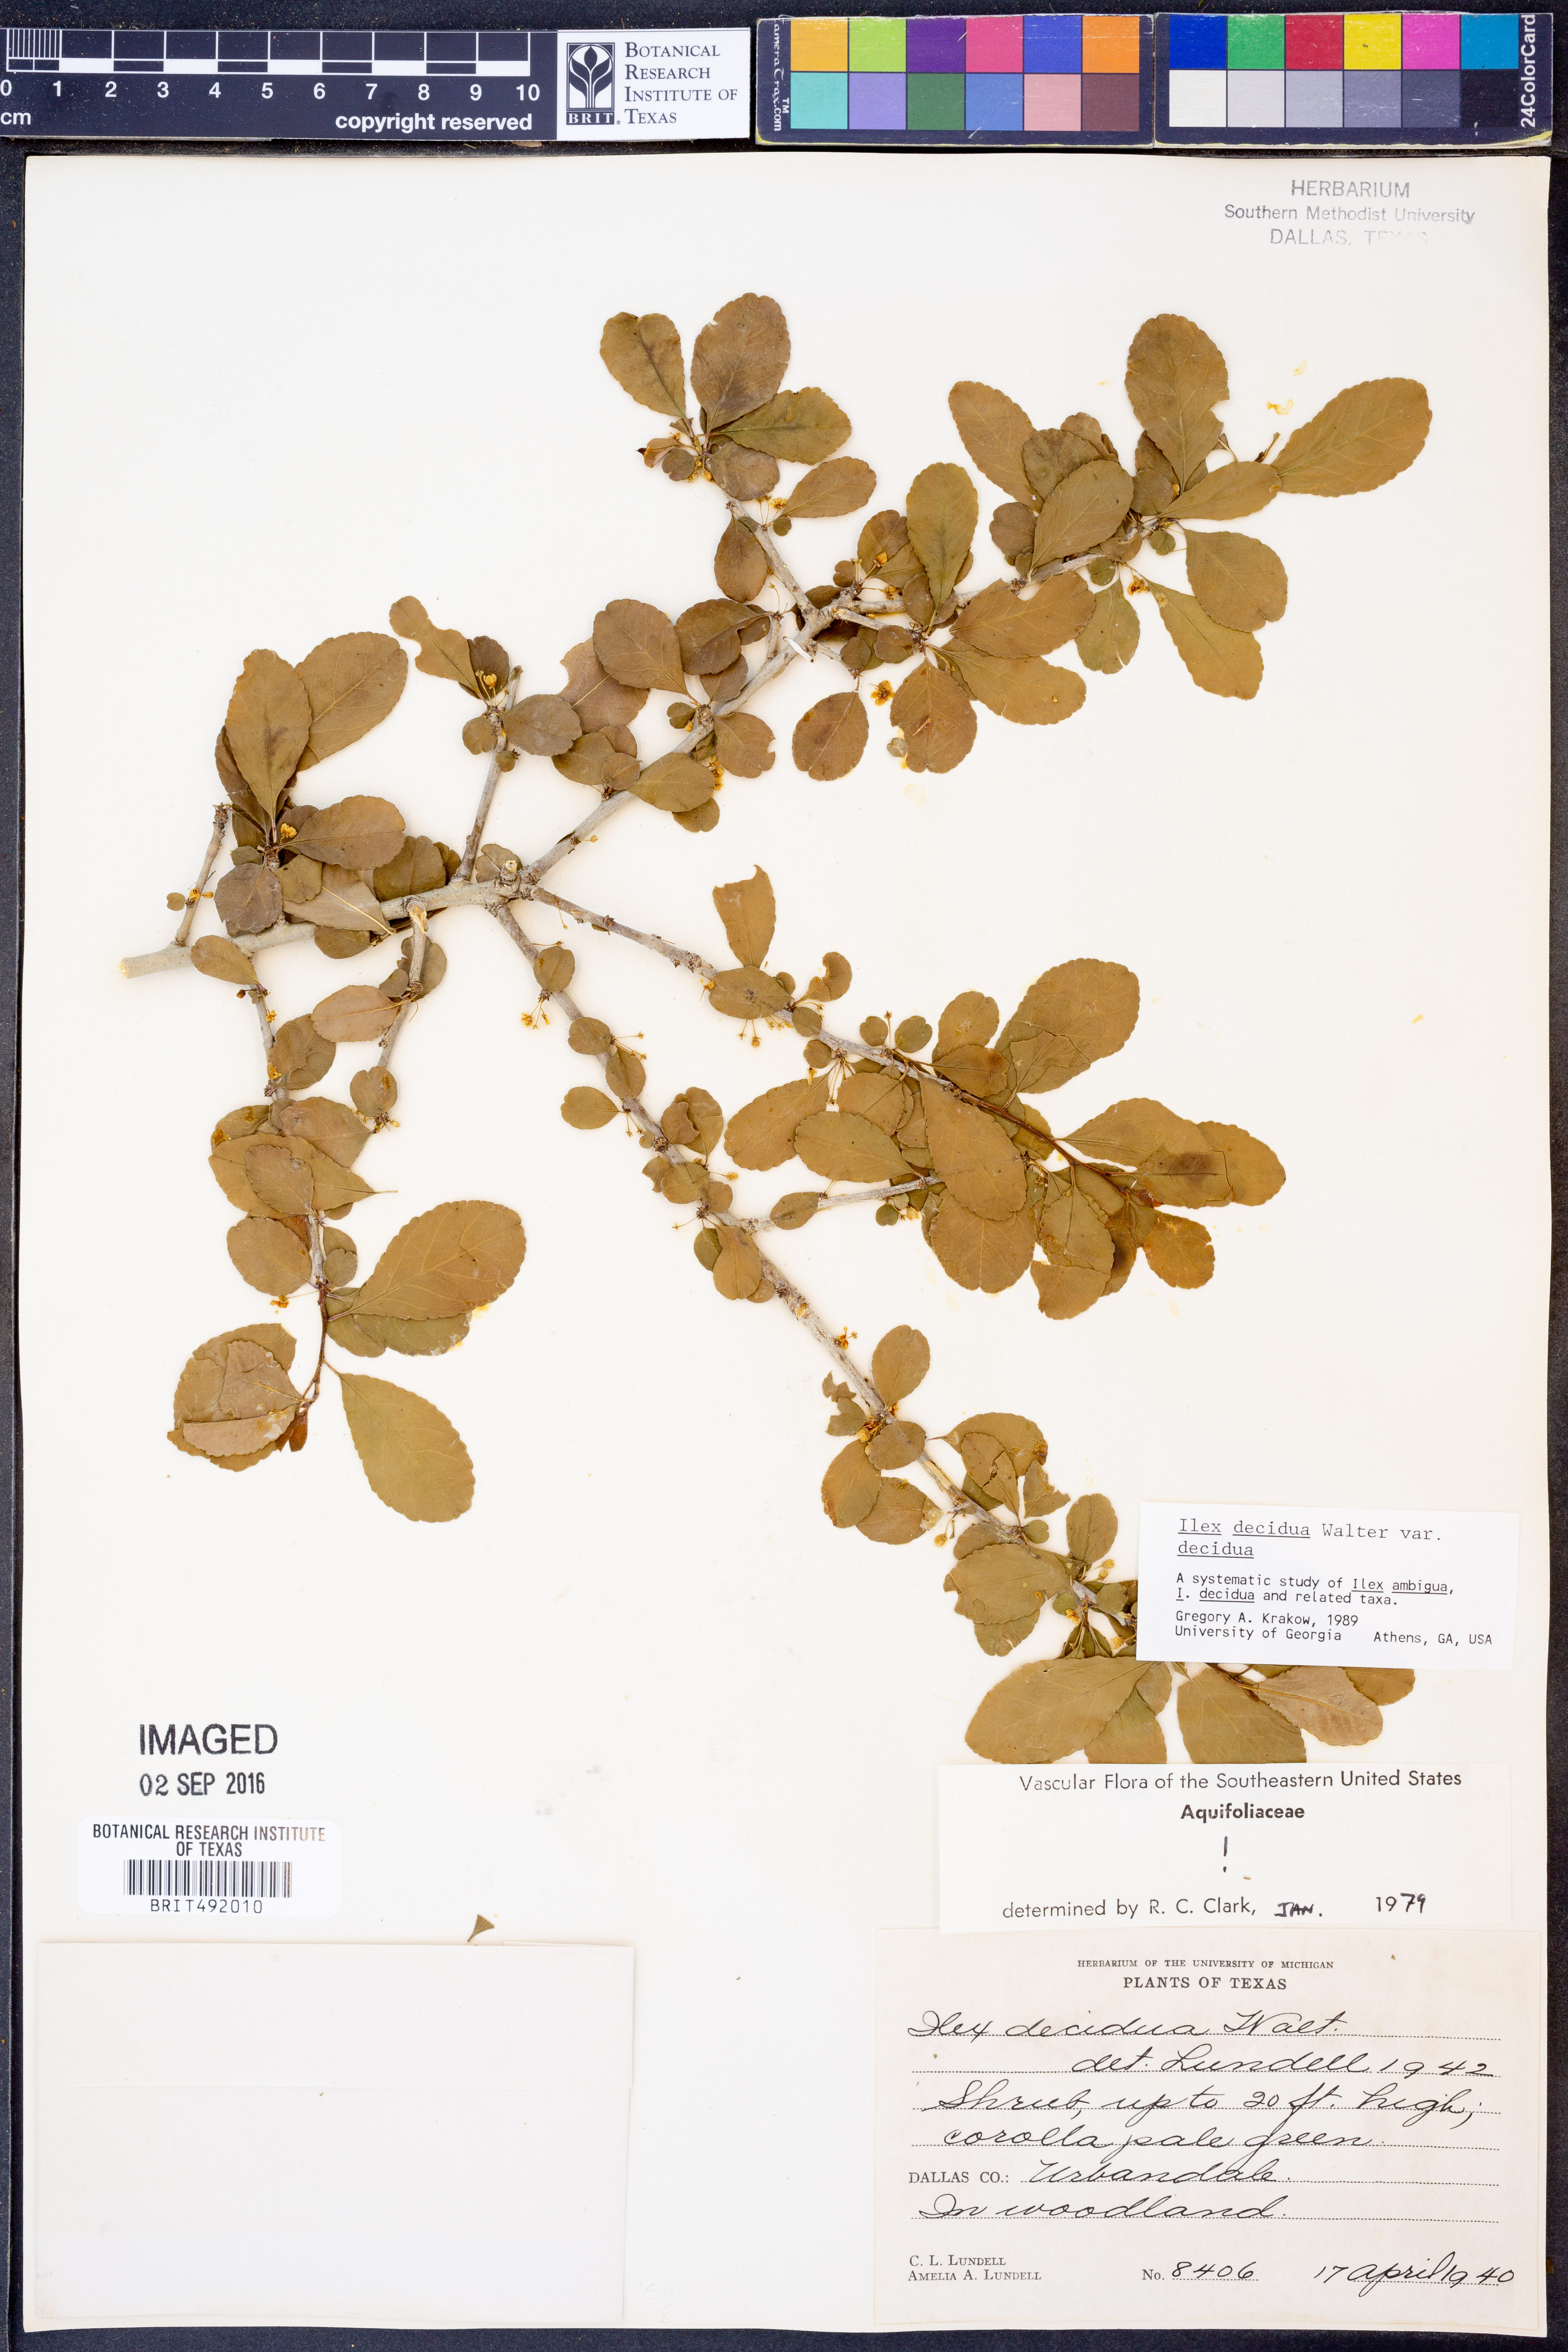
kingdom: Plantae
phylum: Tracheophyta
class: Magnoliopsida
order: Aquifoliales
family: Aquifoliaceae
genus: Ilex
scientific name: Ilex decidua
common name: Possum-haw
